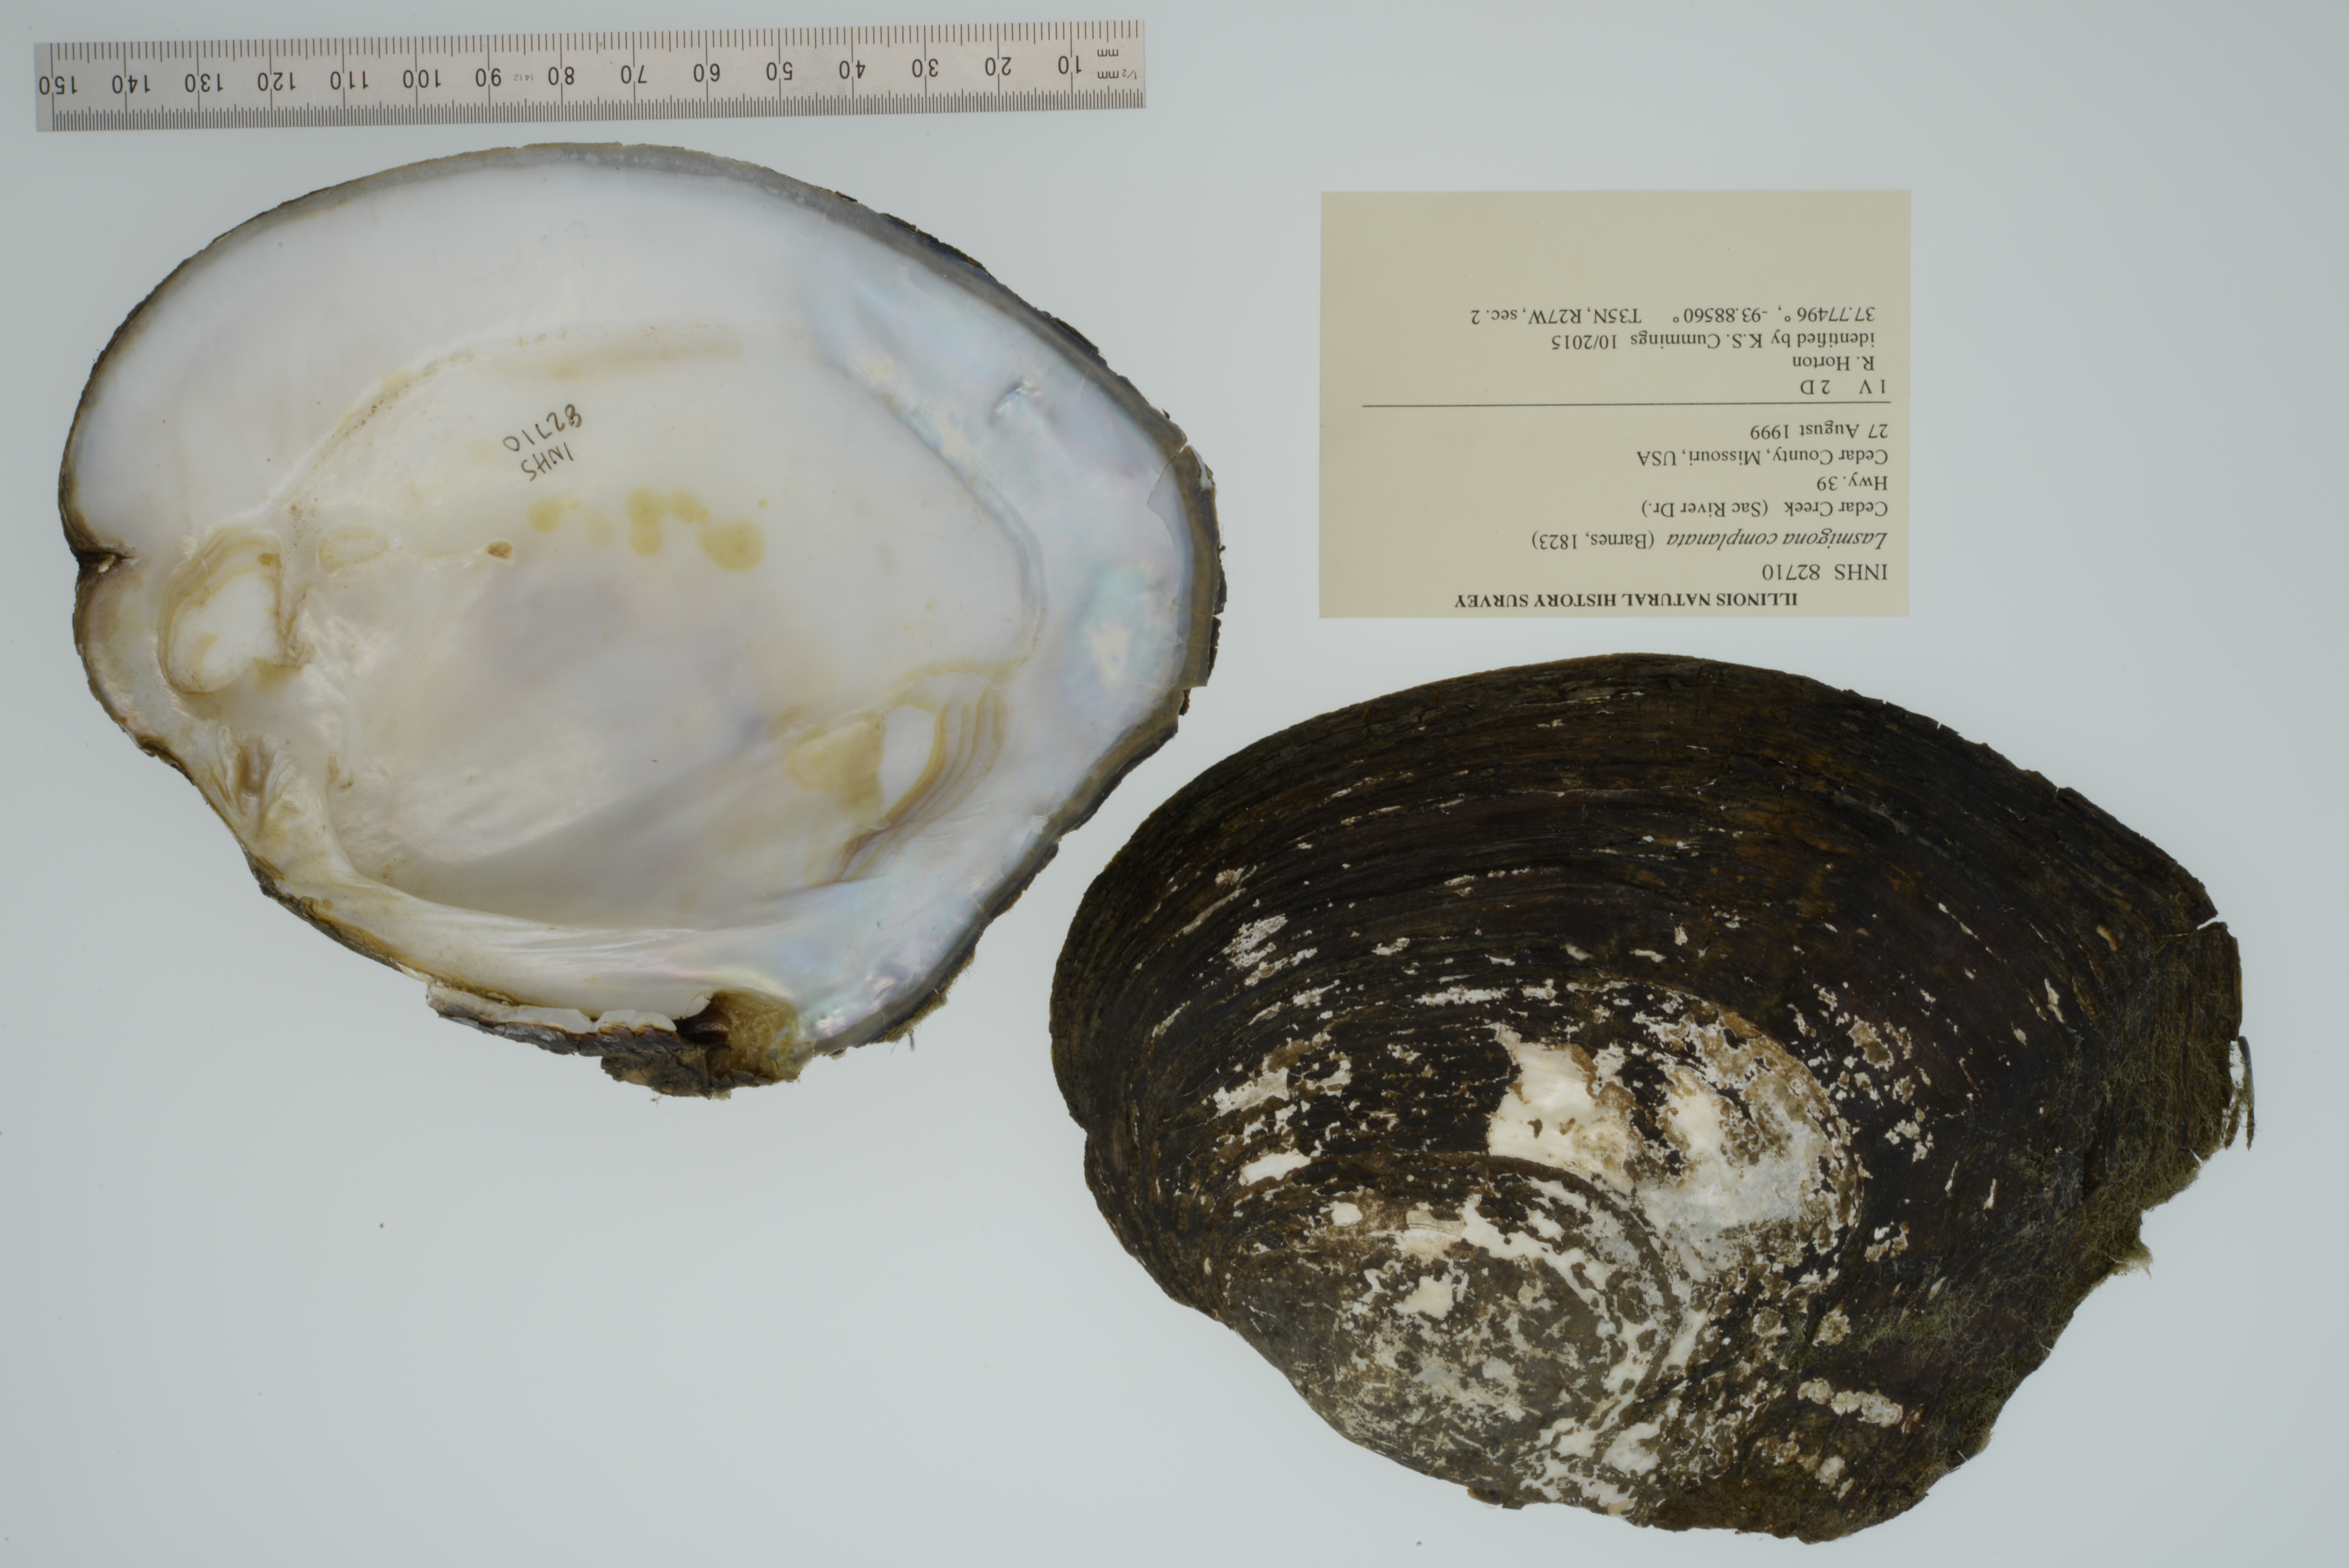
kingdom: Animalia
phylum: Mollusca
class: Bivalvia
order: Unionida
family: Unionidae
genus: Lasmigona
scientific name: Lasmigona complanata
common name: White heelsplitter
